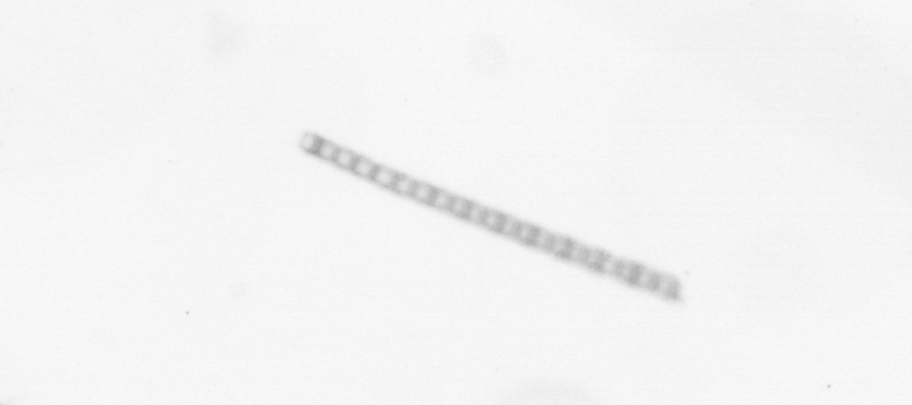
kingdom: Chromista
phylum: Ochrophyta
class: Bacillariophyceae
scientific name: Bacillariophyceae
